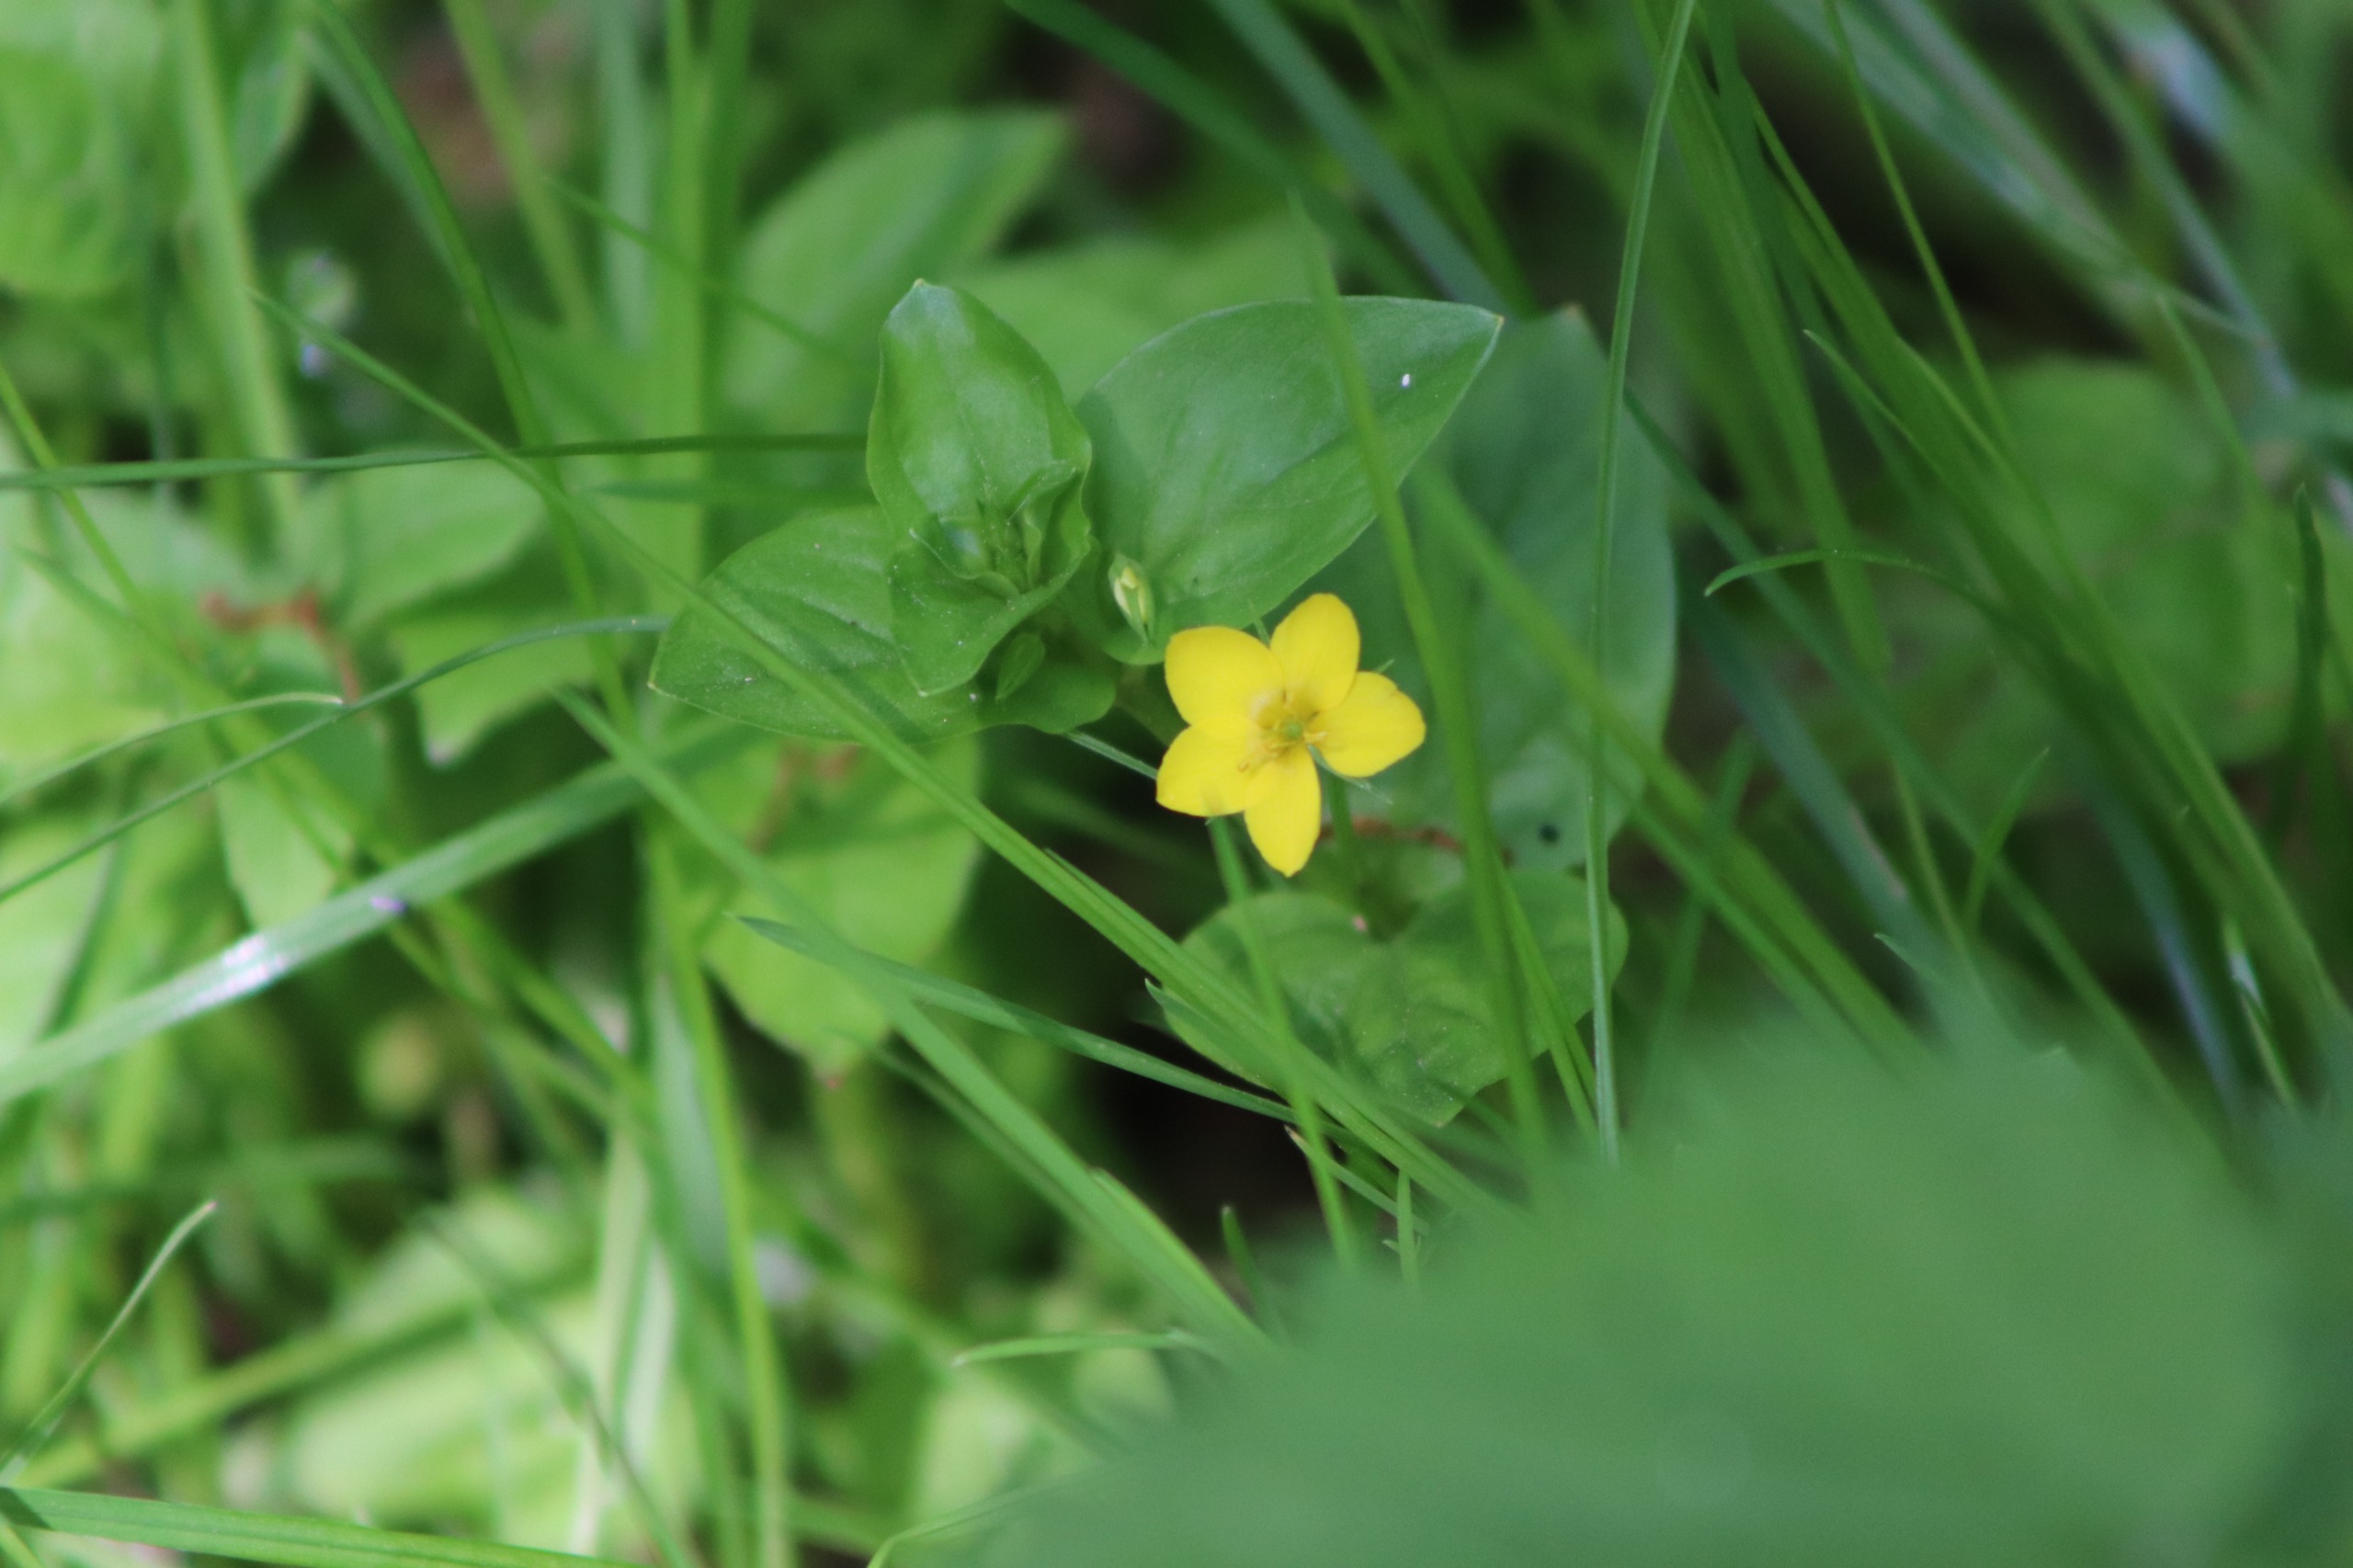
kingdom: Plantae
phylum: Tracheophyta
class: Magnoliopsida
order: Ericales
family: Primulaceae
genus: Lysimachia
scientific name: Lysimachia nemorum
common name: Lund-fredløs
